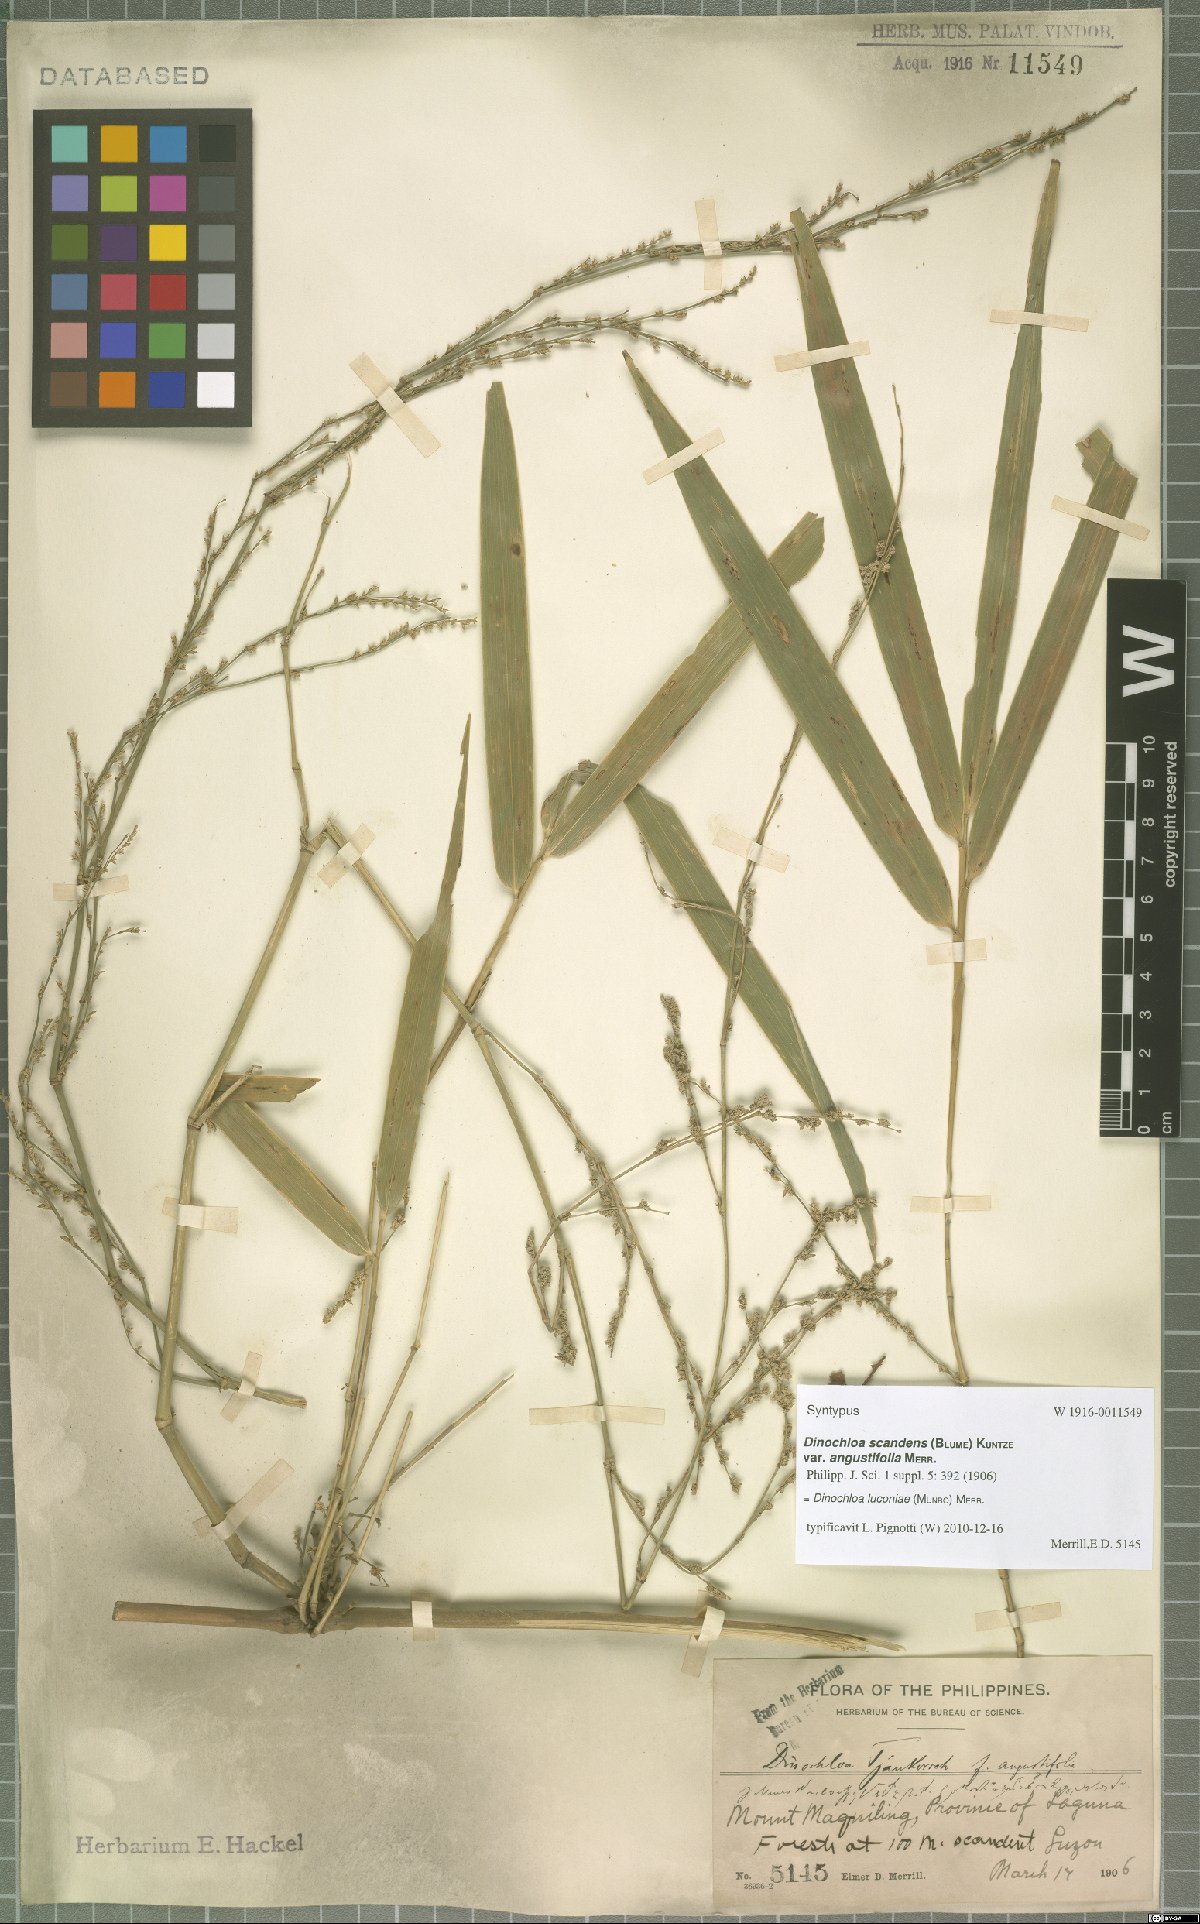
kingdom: Plantae
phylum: Tracheophyta
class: Liliopsida
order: Poales
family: Poaceae
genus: Dinochloa
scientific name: Dinochloa luconiae
